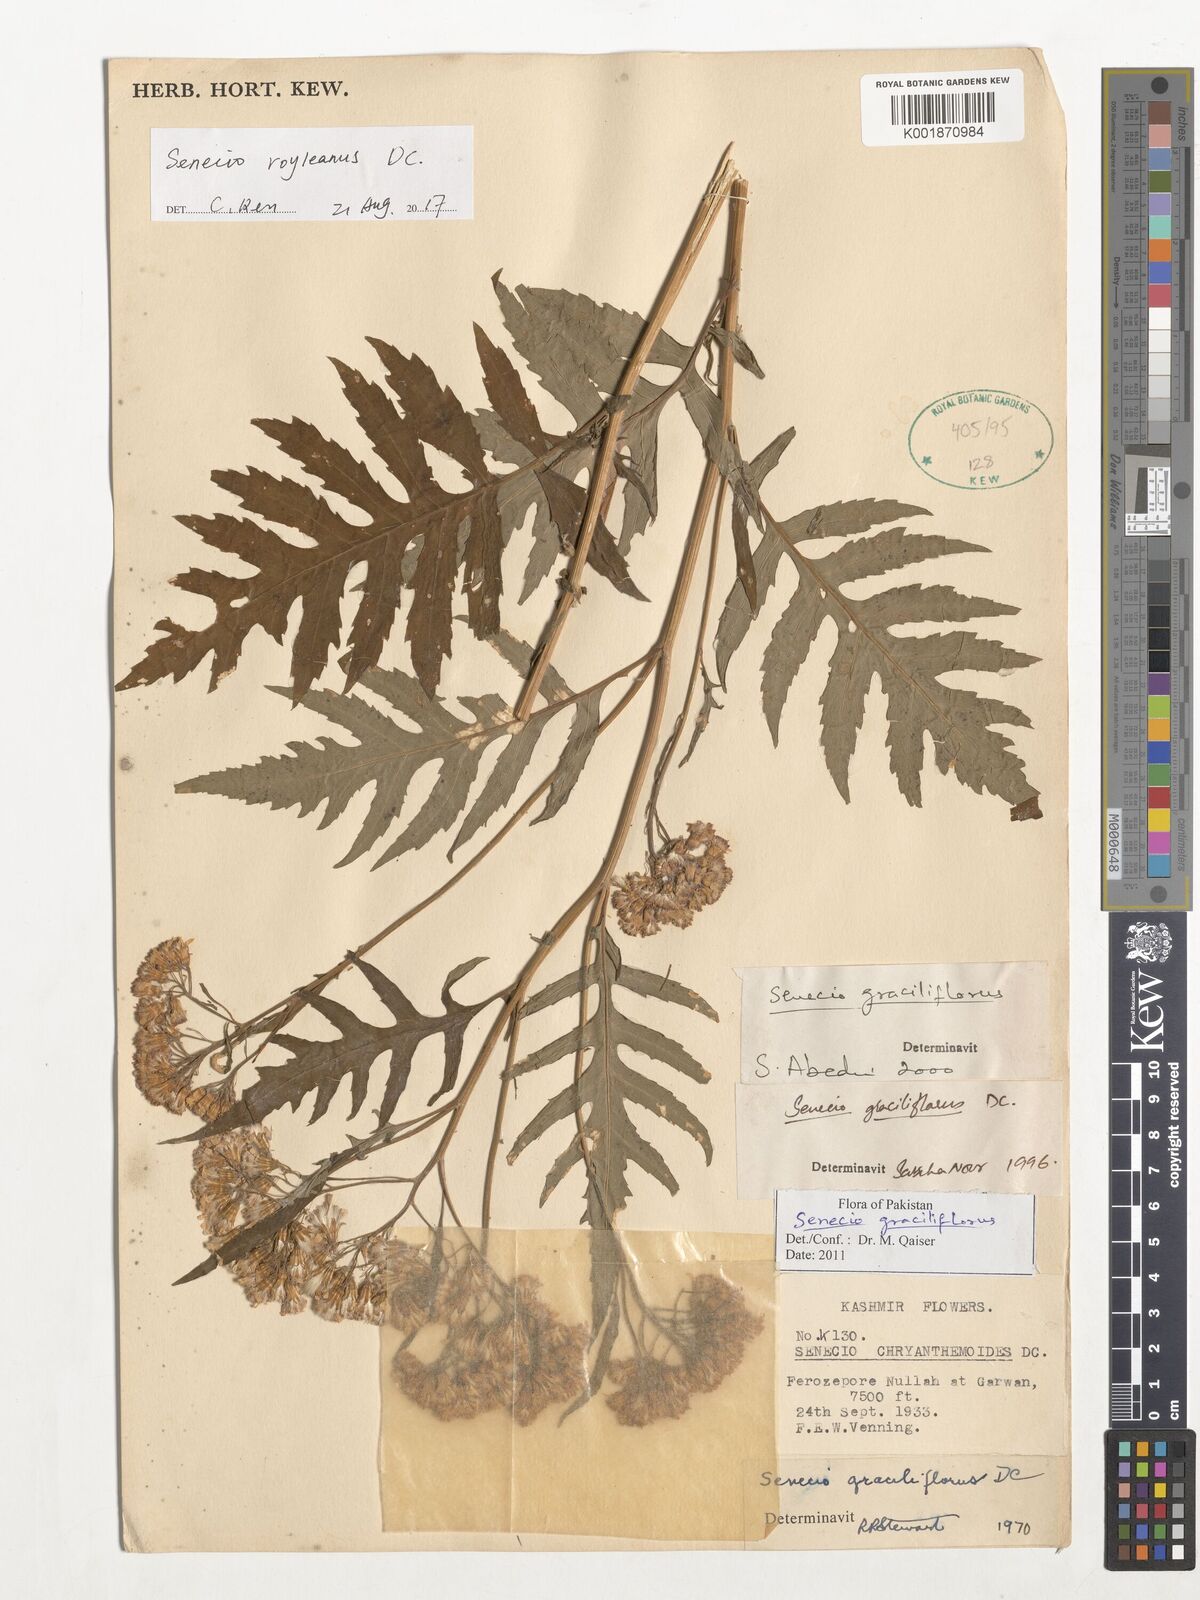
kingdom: Plantae
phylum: Tracheophyta
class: Magnoliopsida
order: Asterales
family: Asteraceae
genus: Senecio
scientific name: Senecio royleanus
